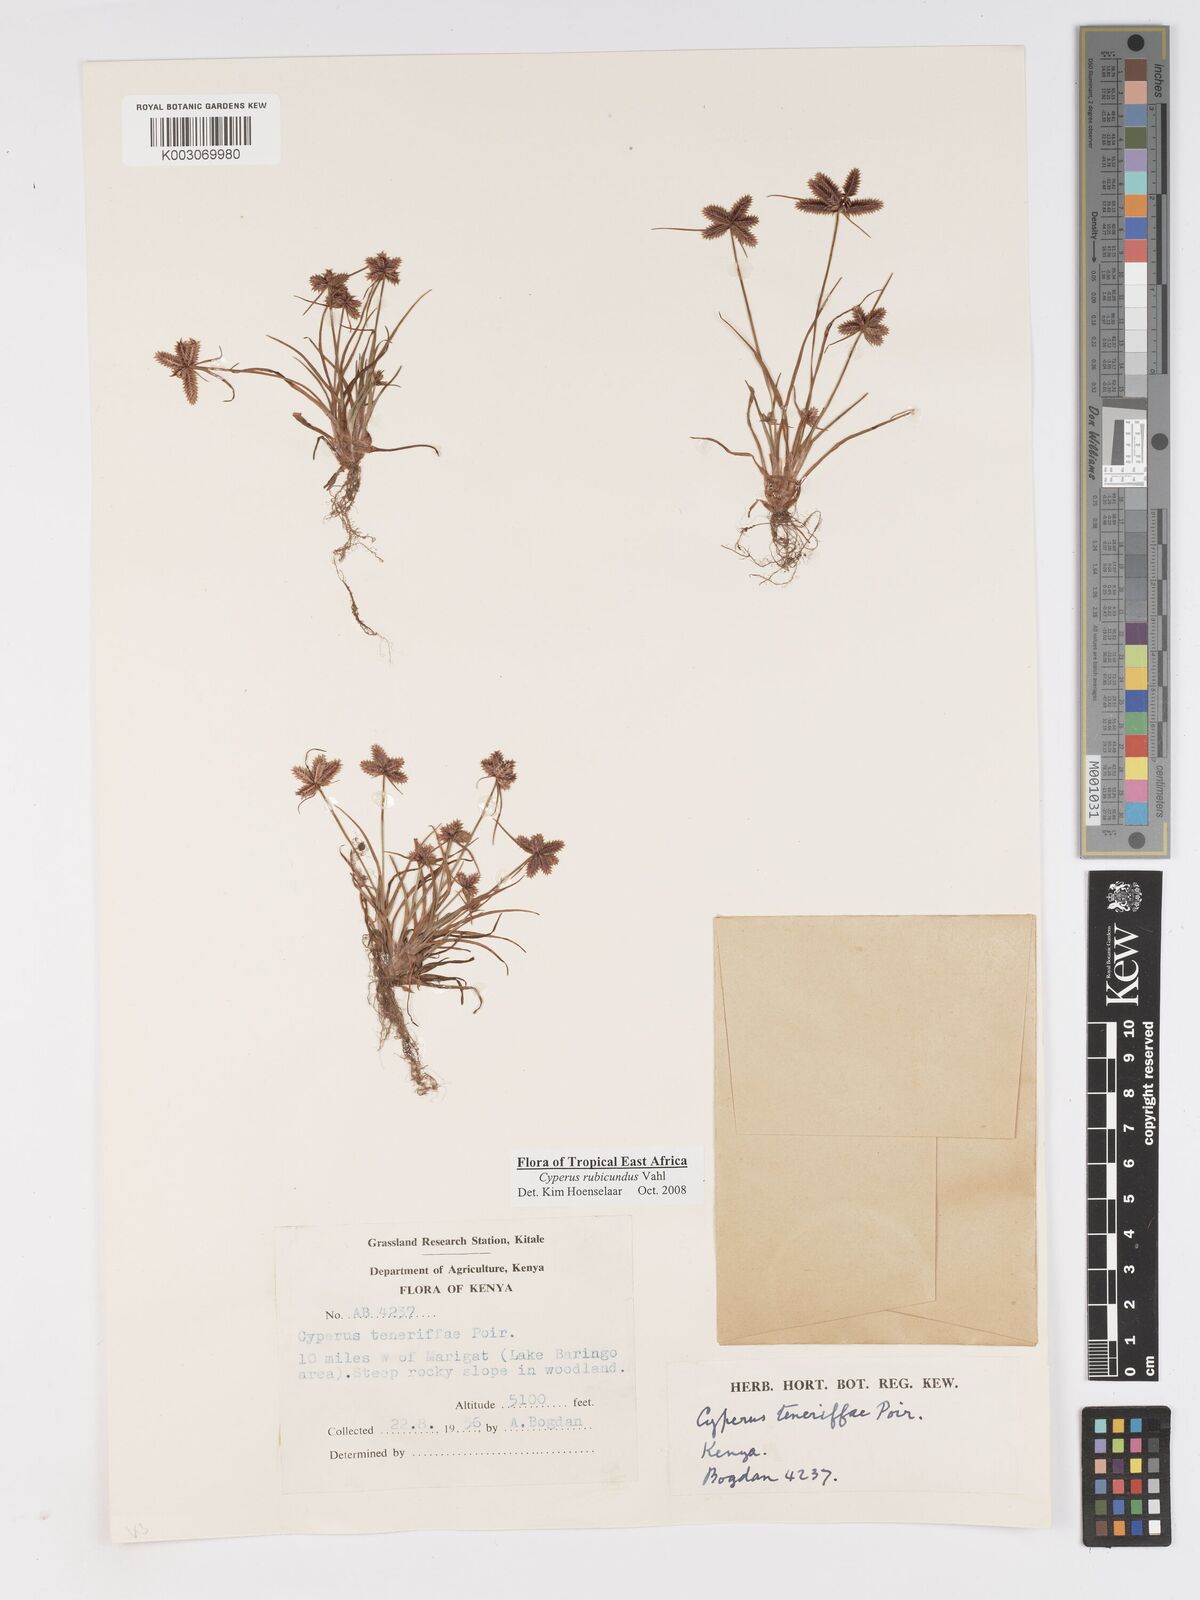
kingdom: Plantae
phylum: Tracheophyta
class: Liliopsida
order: Poales
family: Cyperaceae
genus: Cyperus
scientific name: Cyperus rubicundus
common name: Coco-grass
